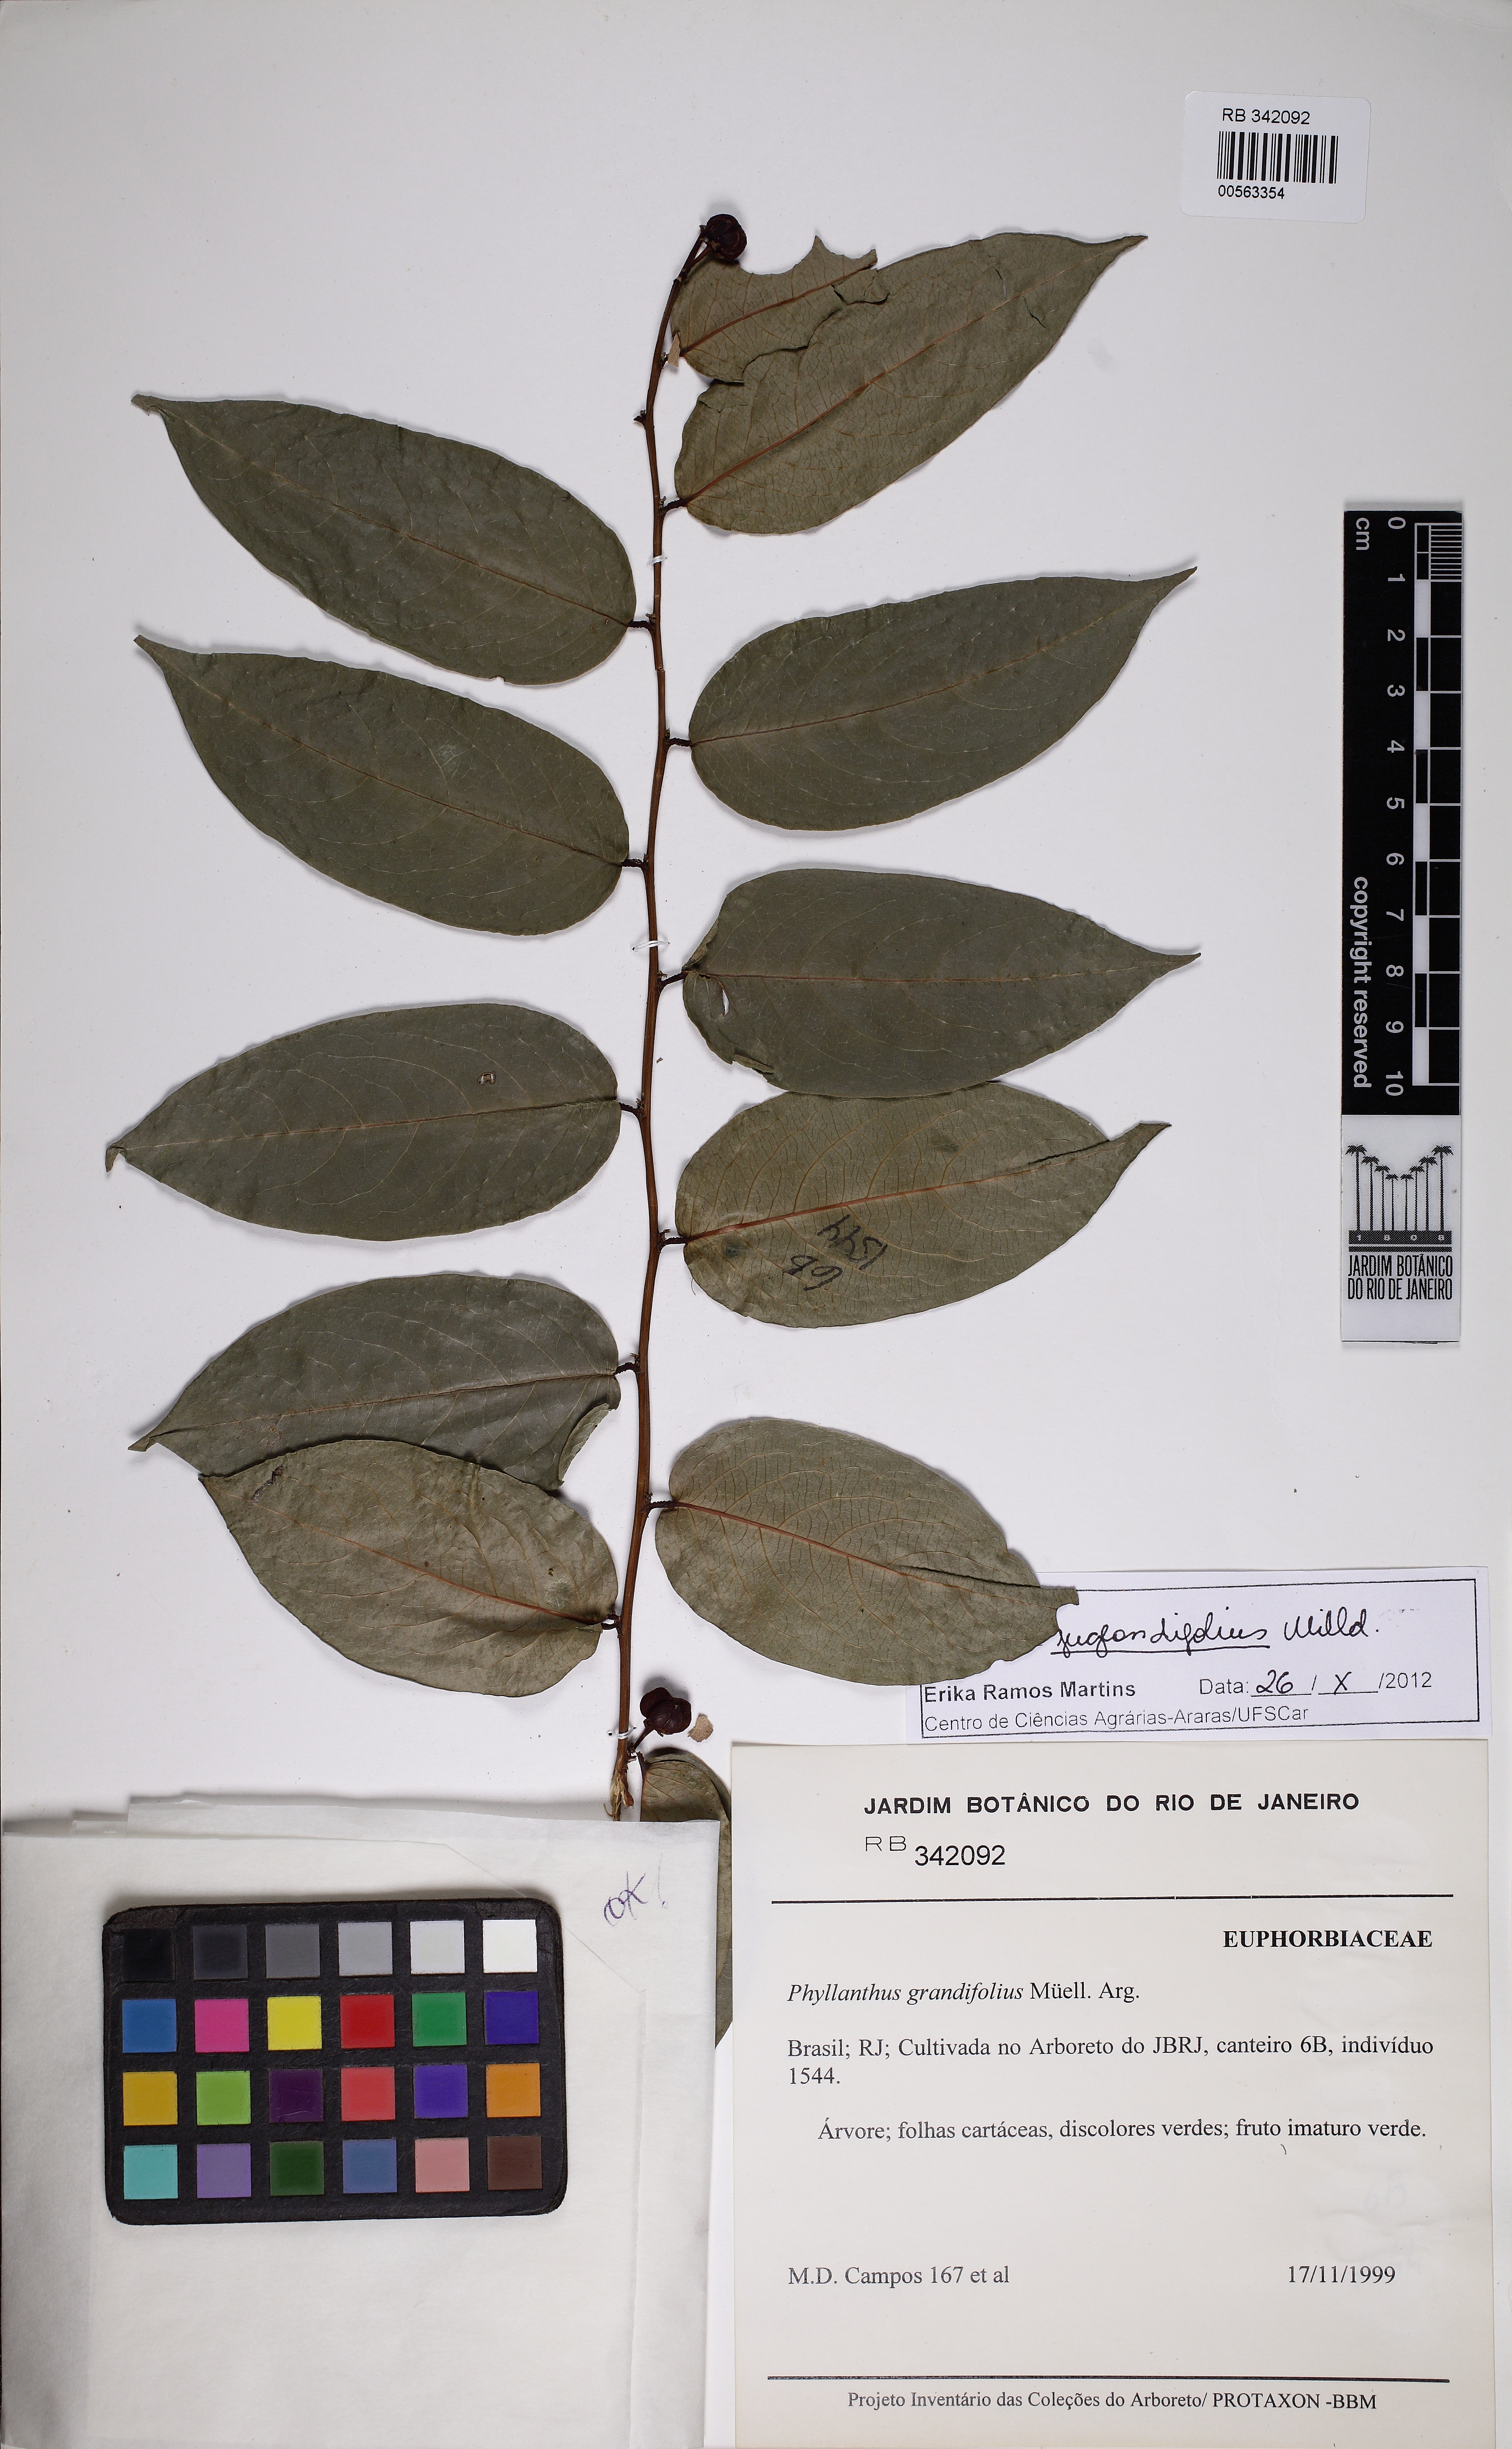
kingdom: Plantae
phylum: Tracheophyta
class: Magnoliopsida
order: Malpighiales
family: Phyllanthaceae
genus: Phyllanthus
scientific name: Phyllanthus juglandifolius
